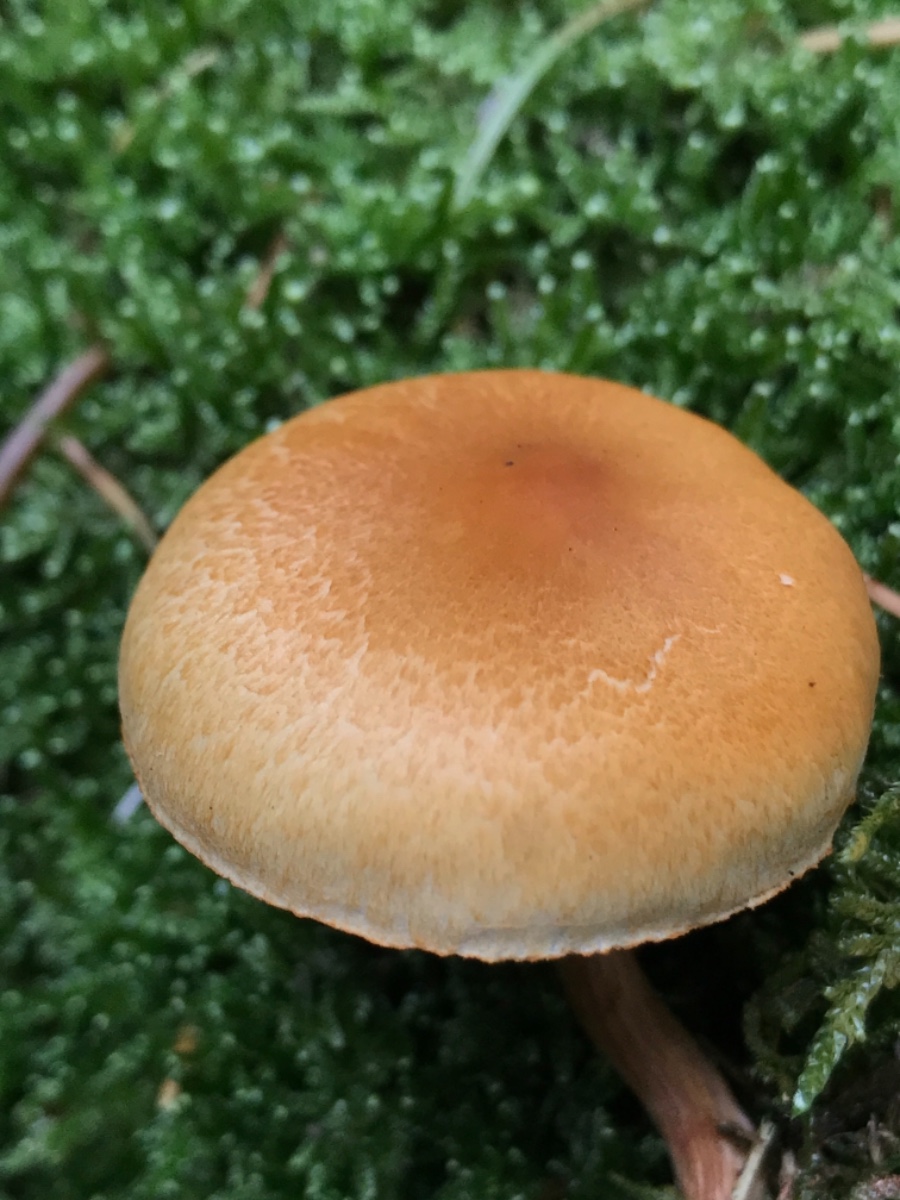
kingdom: Fungi
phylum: Basidiomycota
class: Agaricomycetes
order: Agaricales
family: Hymenogastraceae
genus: Gymnopilus
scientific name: Gymnopilus penetrans
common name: plettet flammehat
